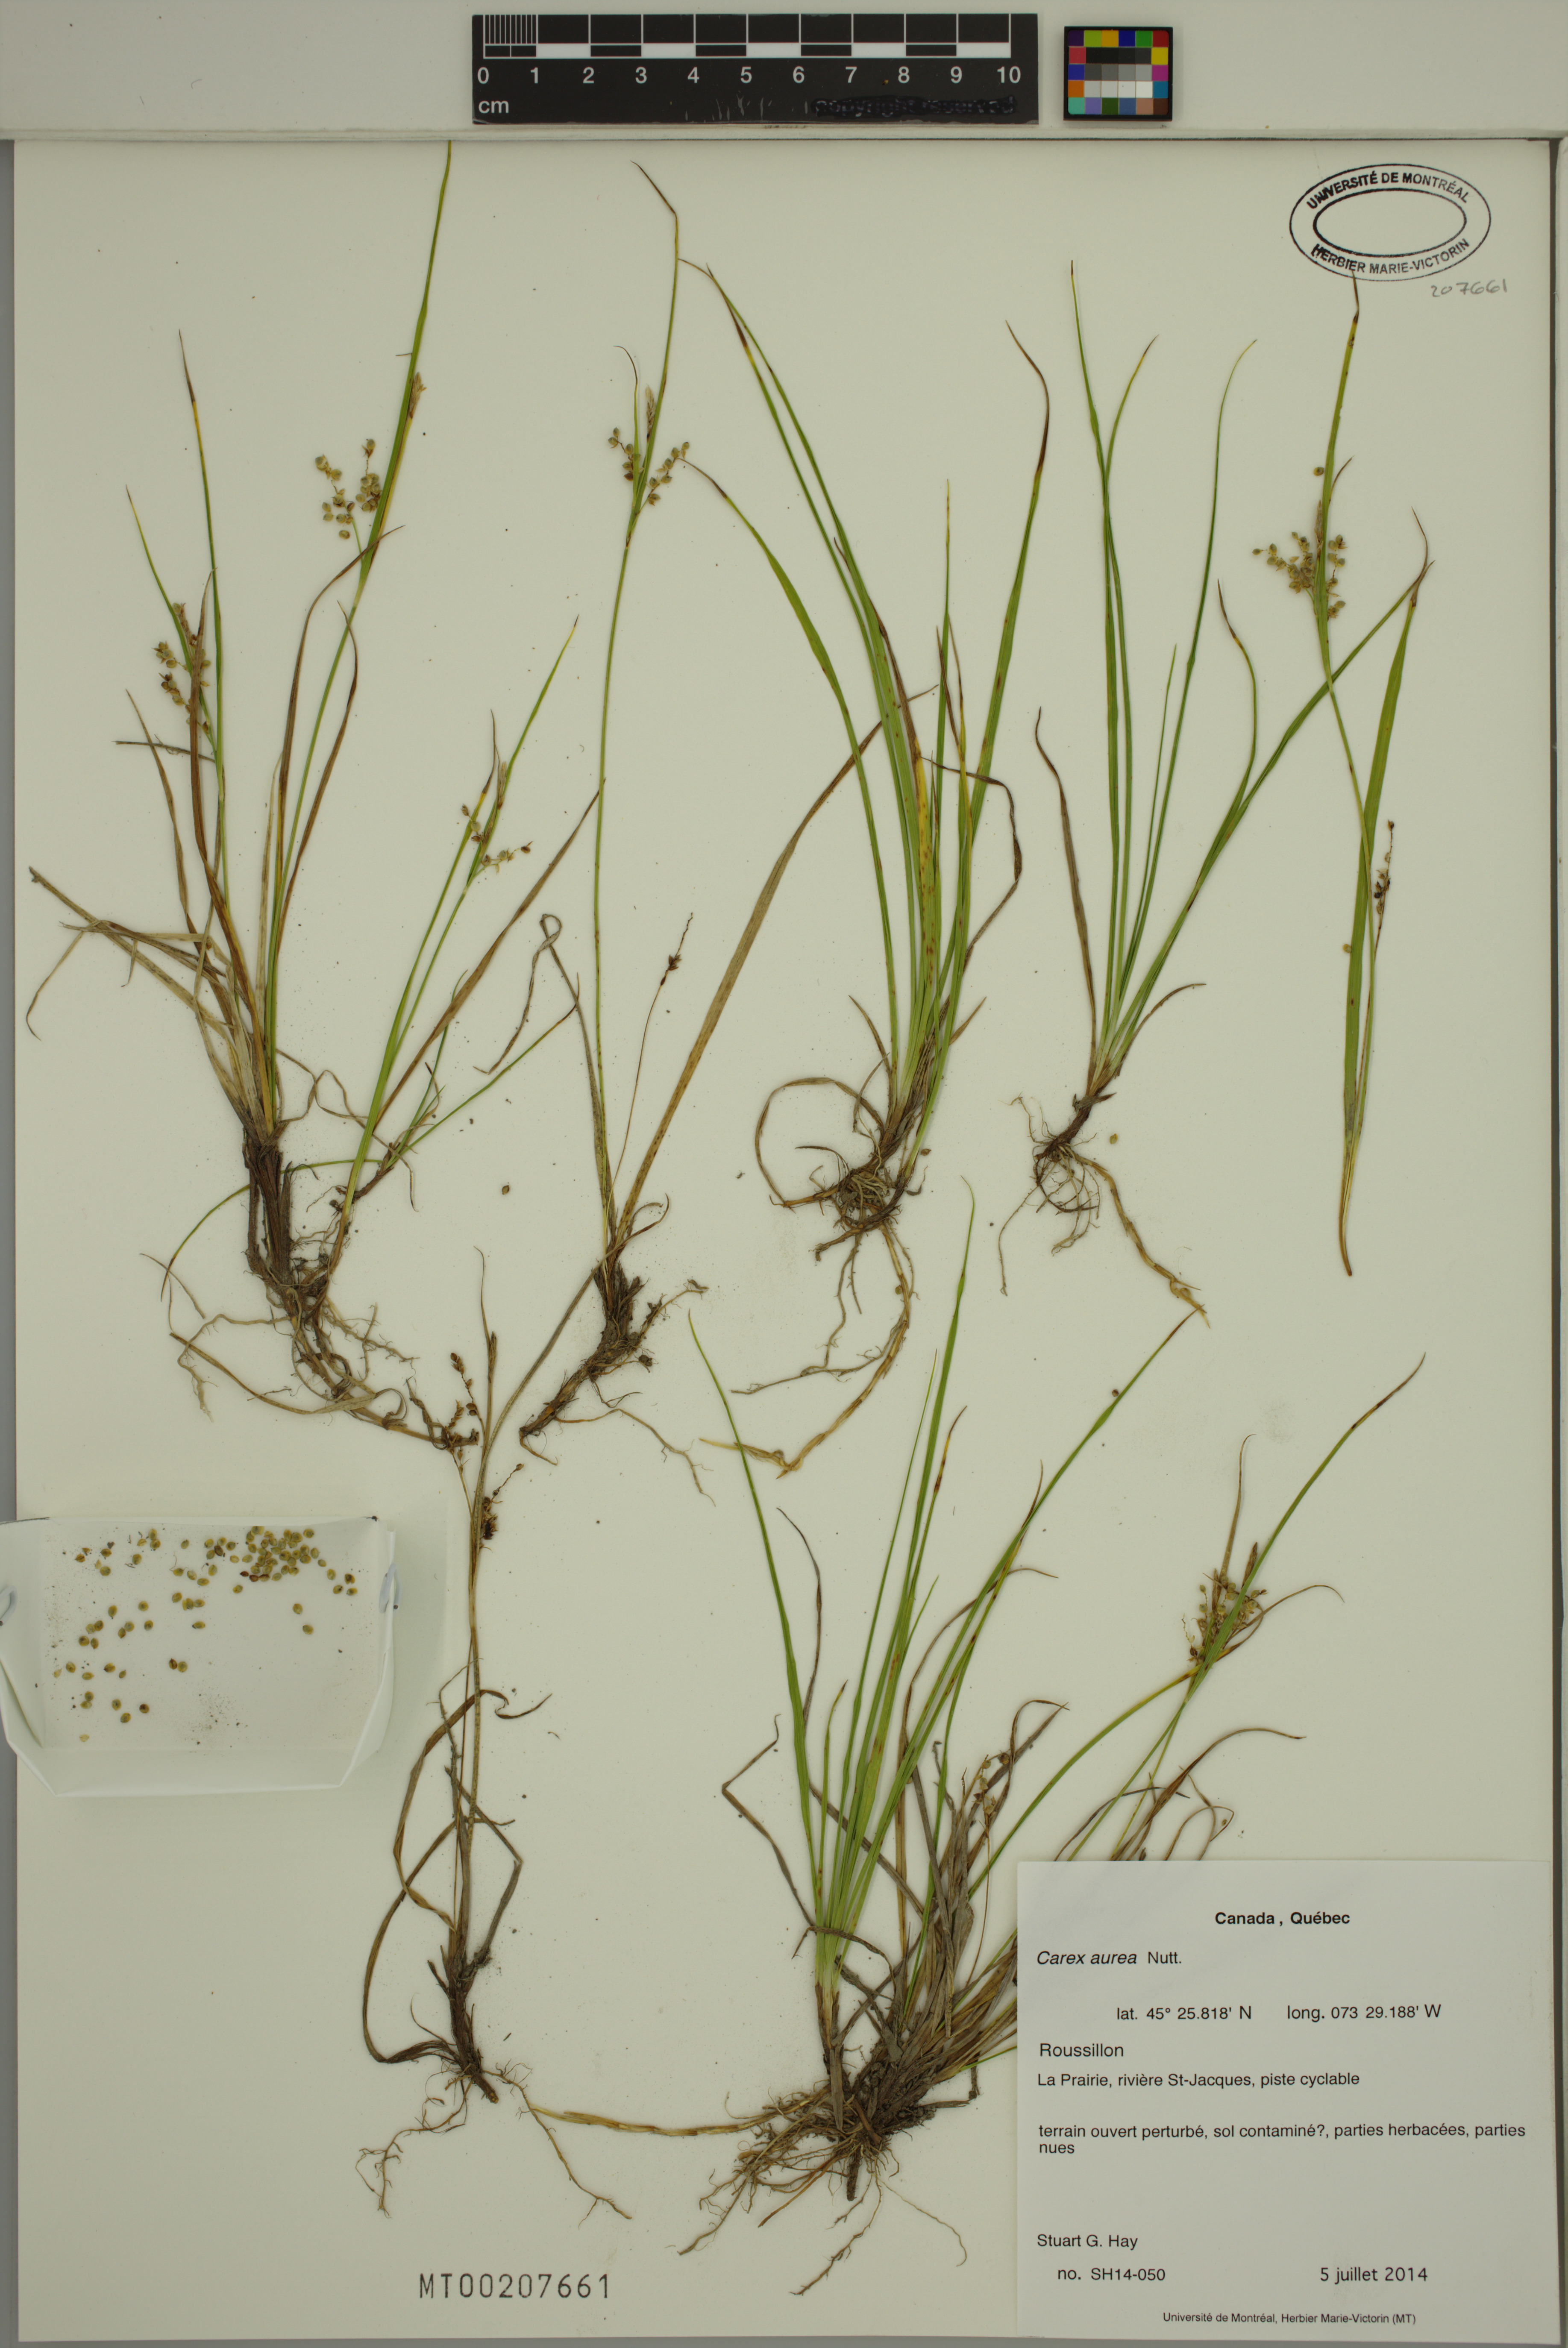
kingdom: Plantae
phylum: Tracheophyta
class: Liliopsida
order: Poales
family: Cyperaceae
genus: Carex
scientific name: Carex aurea
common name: Golden sedge
